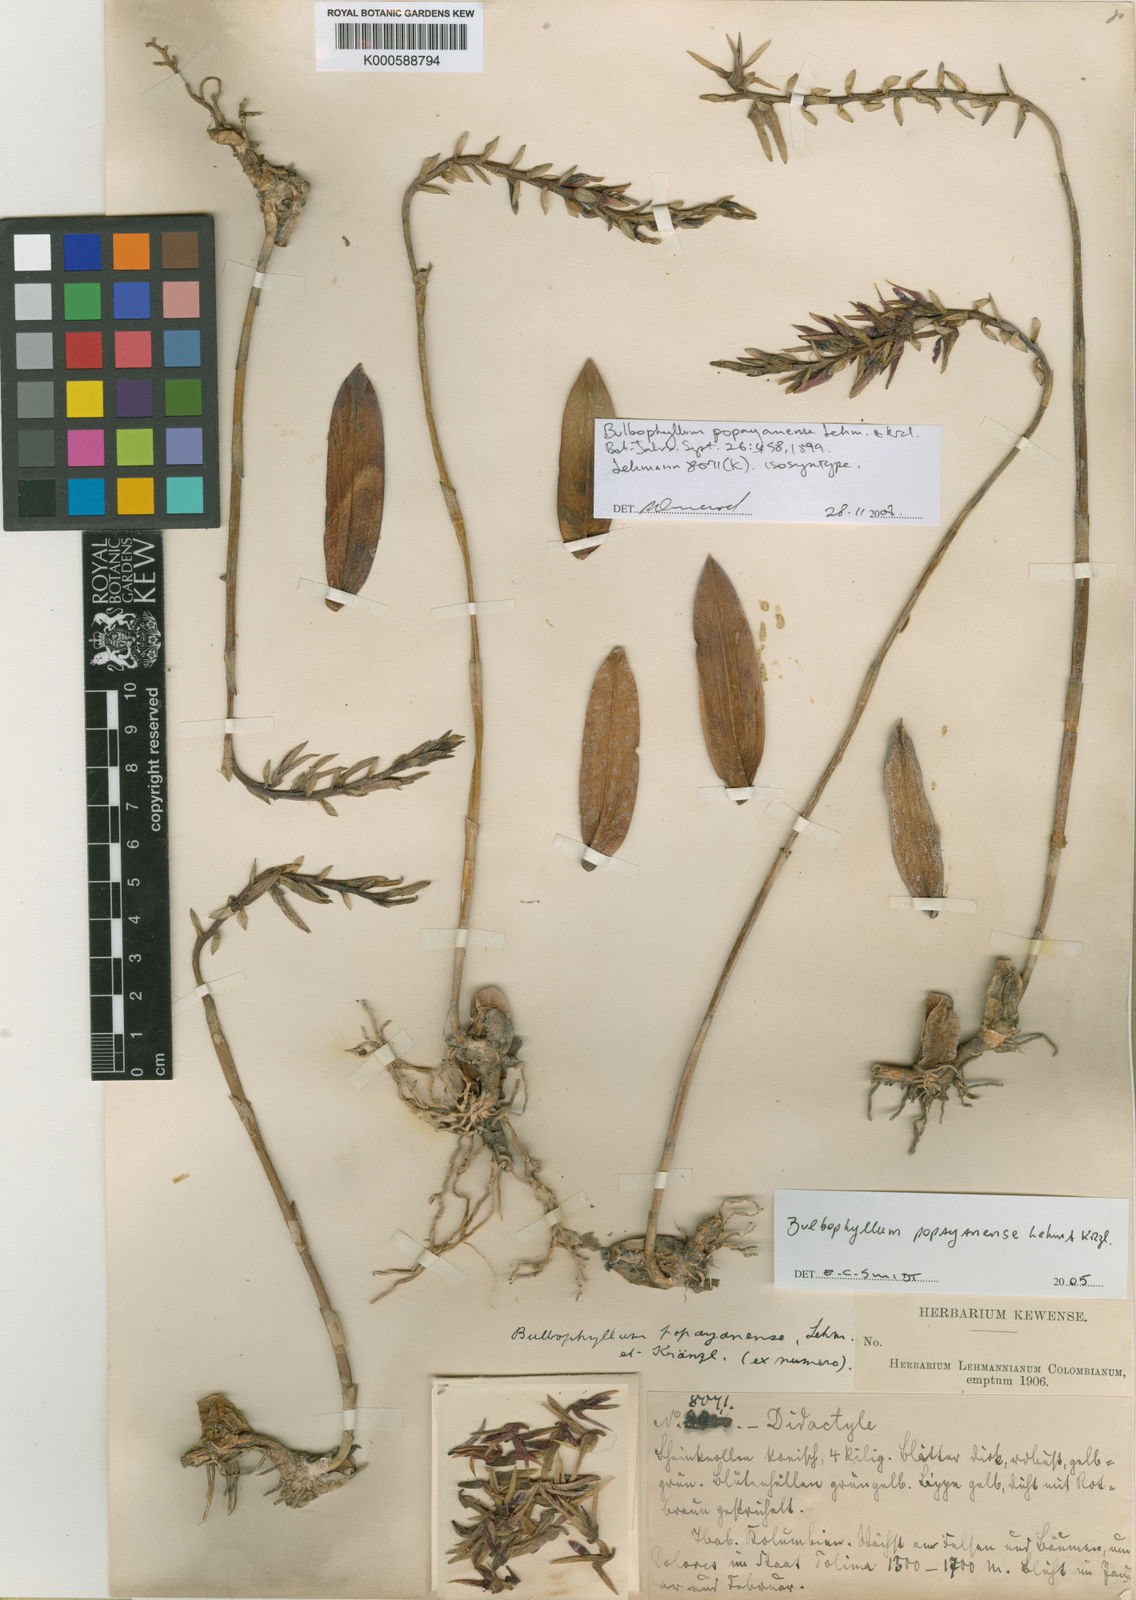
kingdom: Plantae
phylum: Tracheophyta
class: Liliopsida
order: Asparagales
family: Orchidaceae
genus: Bulbophyllum
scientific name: Bulbophyllum popayanense
